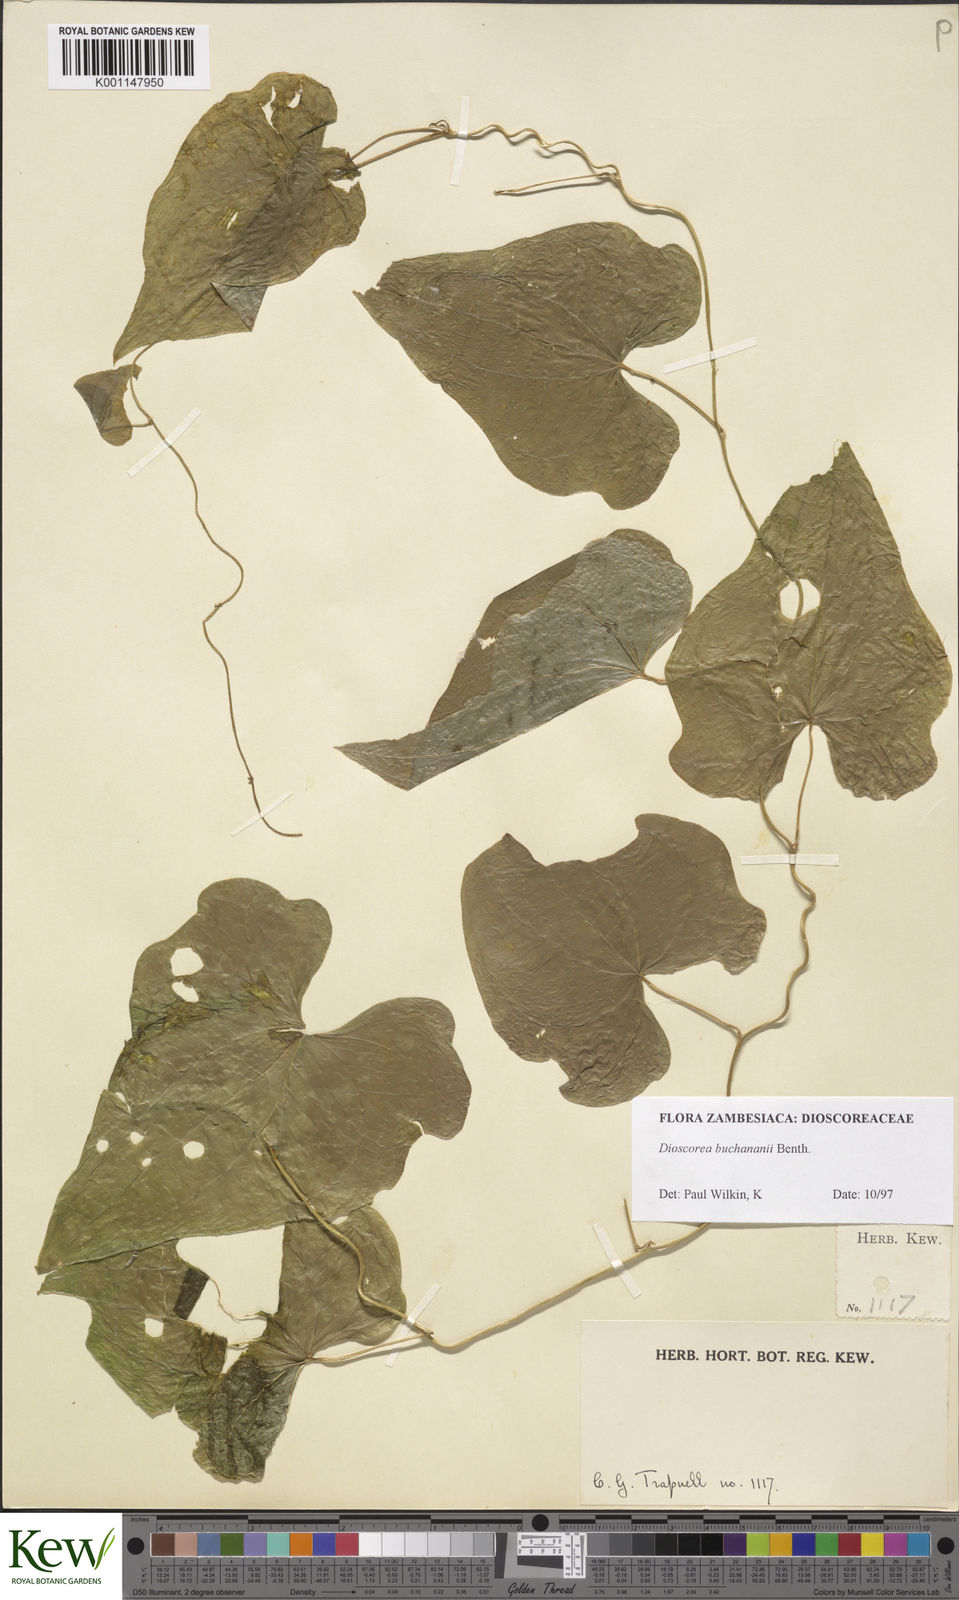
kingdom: Plantae
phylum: Tracheophyta
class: Liliopsida
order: Dioscoreales
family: Dioscoreaceae
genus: Dioscorea
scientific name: Dioscorea buchananii
